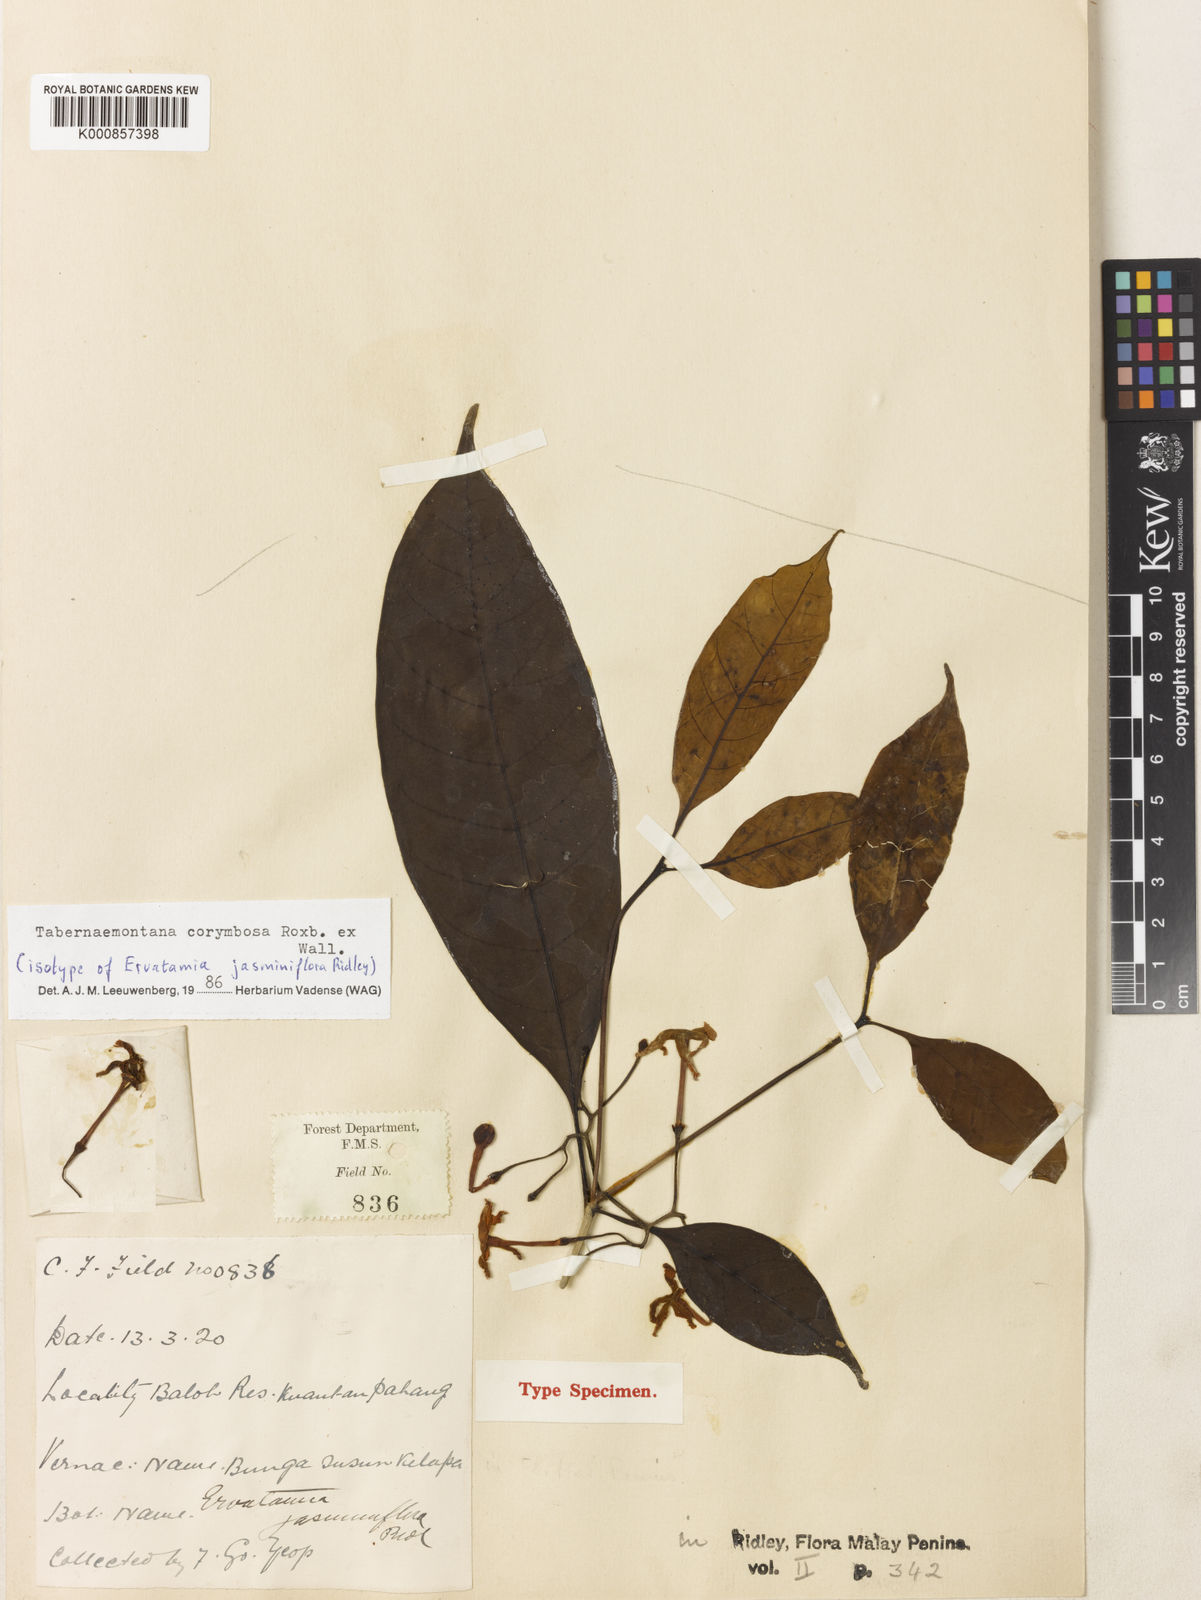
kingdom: Plantae
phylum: Tracheophyta
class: Magnoliopsida
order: Gentianales
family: Apocynaceae
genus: Tabernaemontana
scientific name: Tabernaemontana corymbosa
